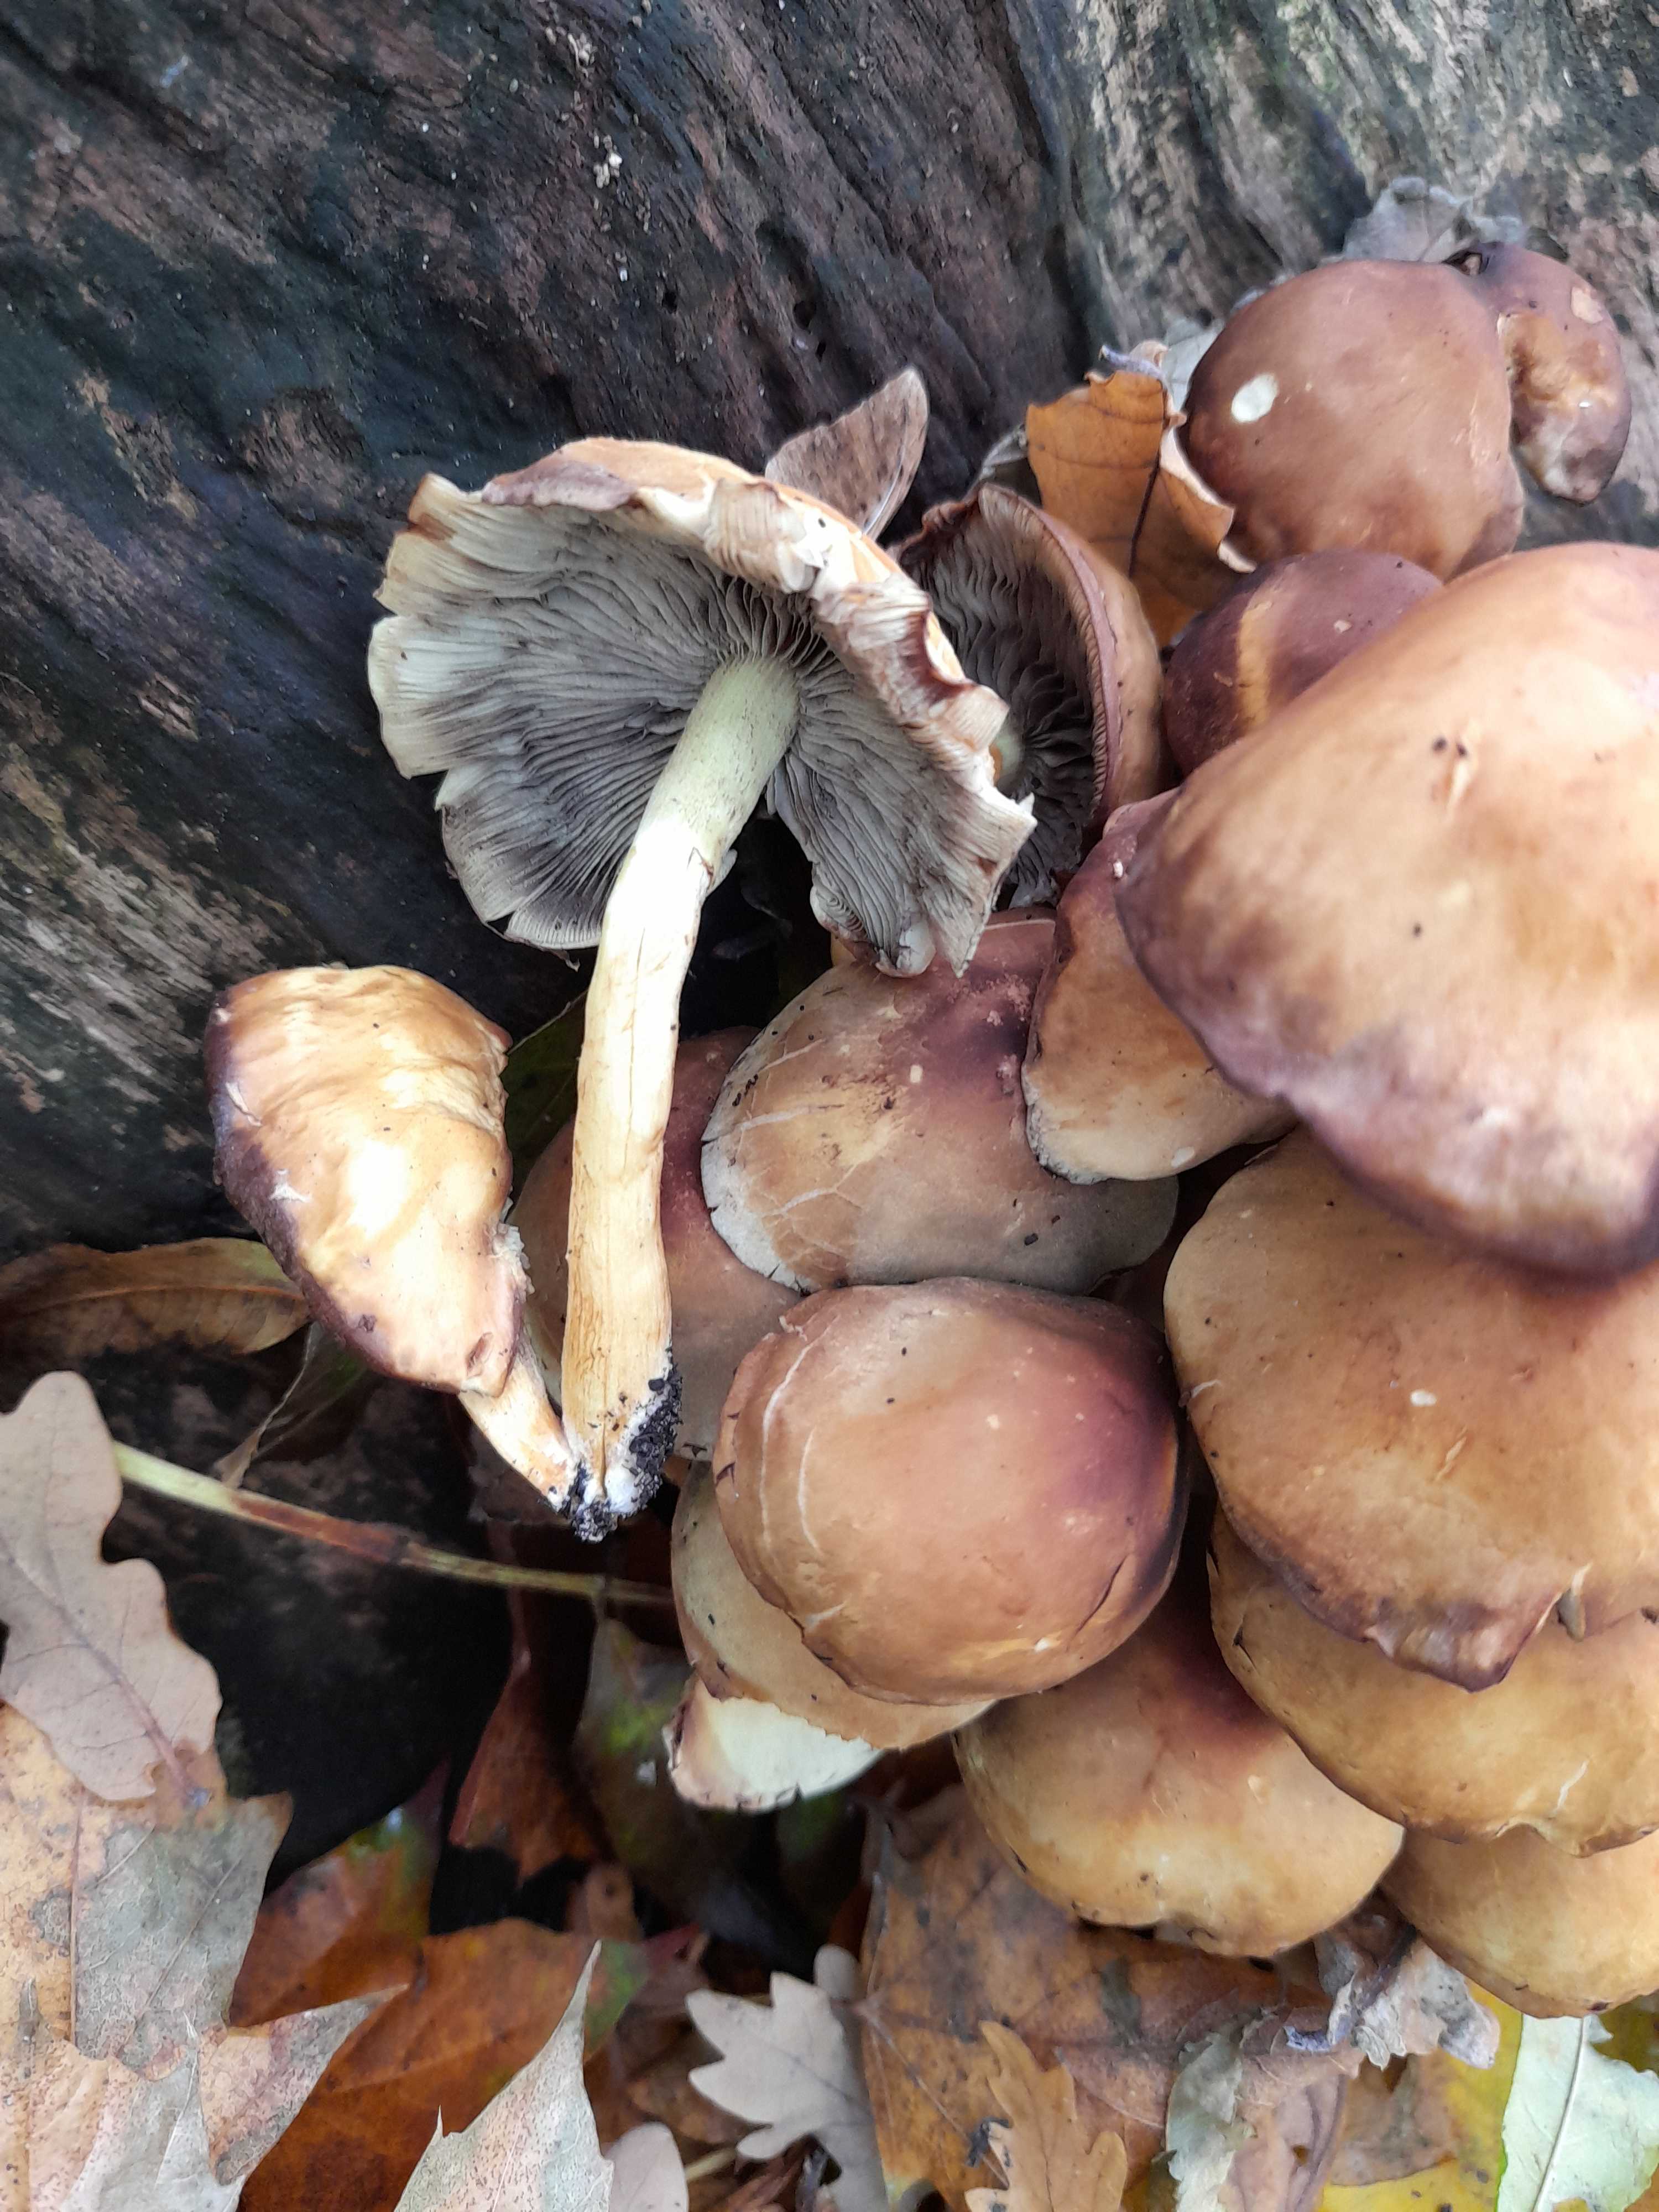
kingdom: Fungi
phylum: Basidiomycota
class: Agaricomycetes
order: Agaricales
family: Strophariaceae
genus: Hypholoma
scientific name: Hypholoma fasciculare
